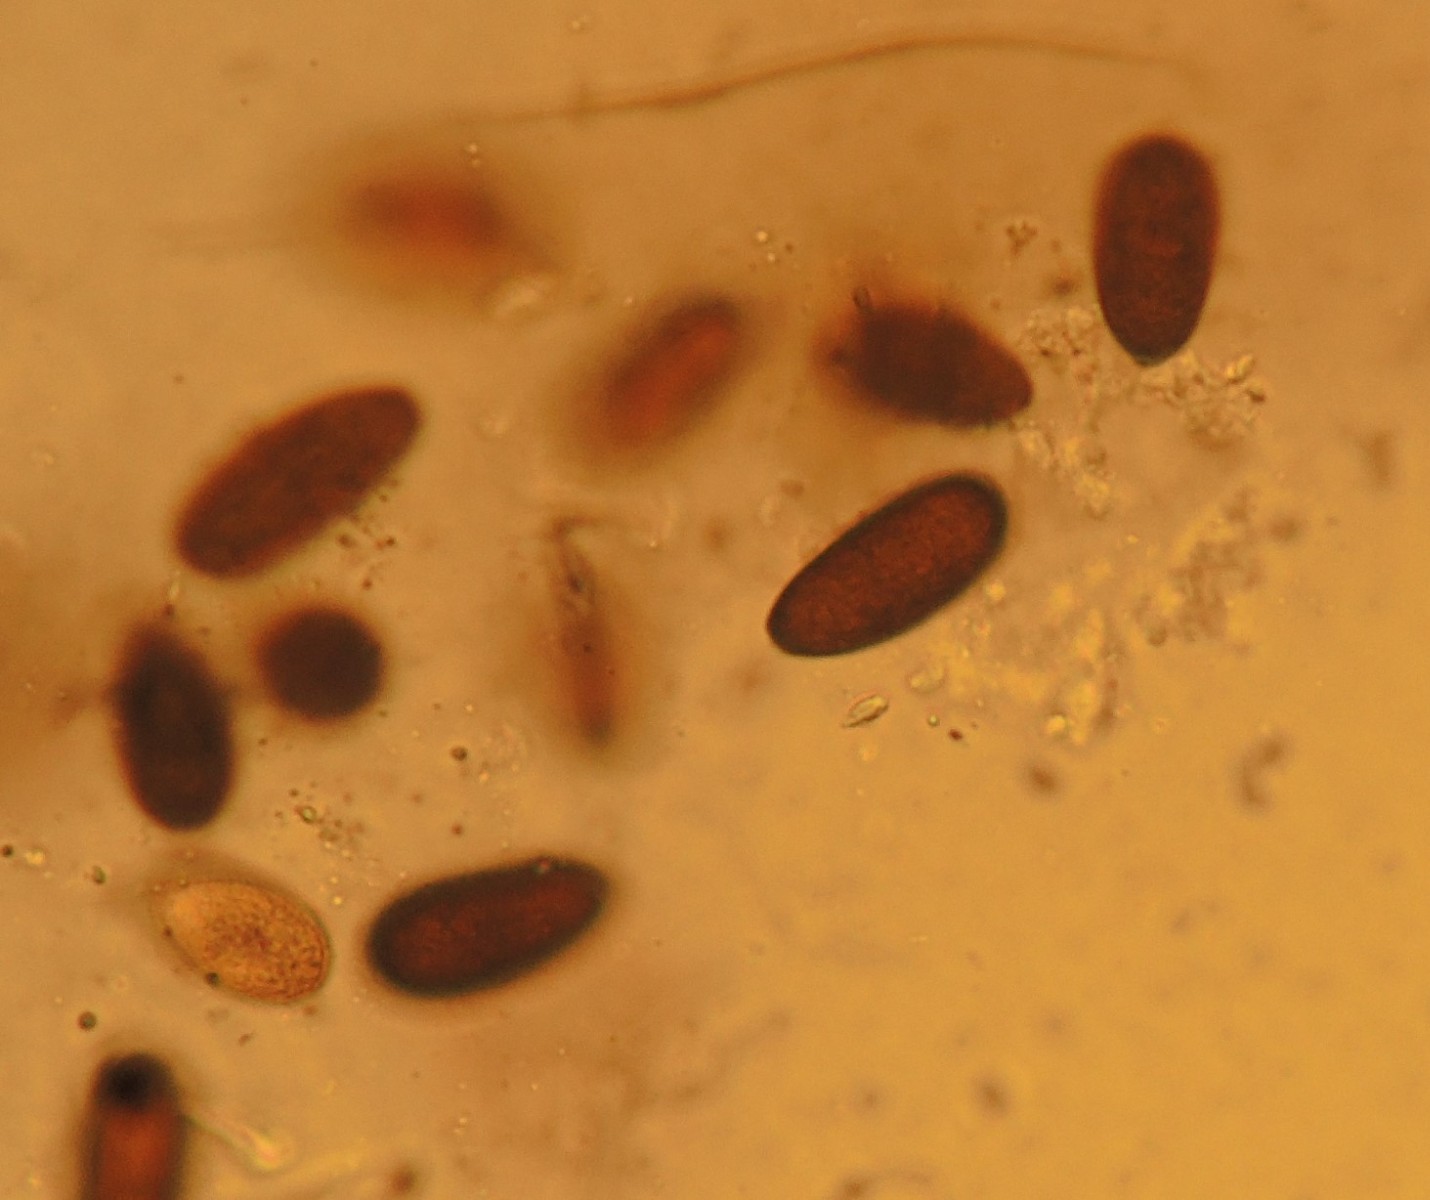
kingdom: Fungi
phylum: Ascomycota
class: Dothideomycetes
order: Botryosphaeriales
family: Botryosphaeriaceae
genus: Sphaeropsis
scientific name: Sphaeropsis sapinea
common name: Sphaeropsis blight
